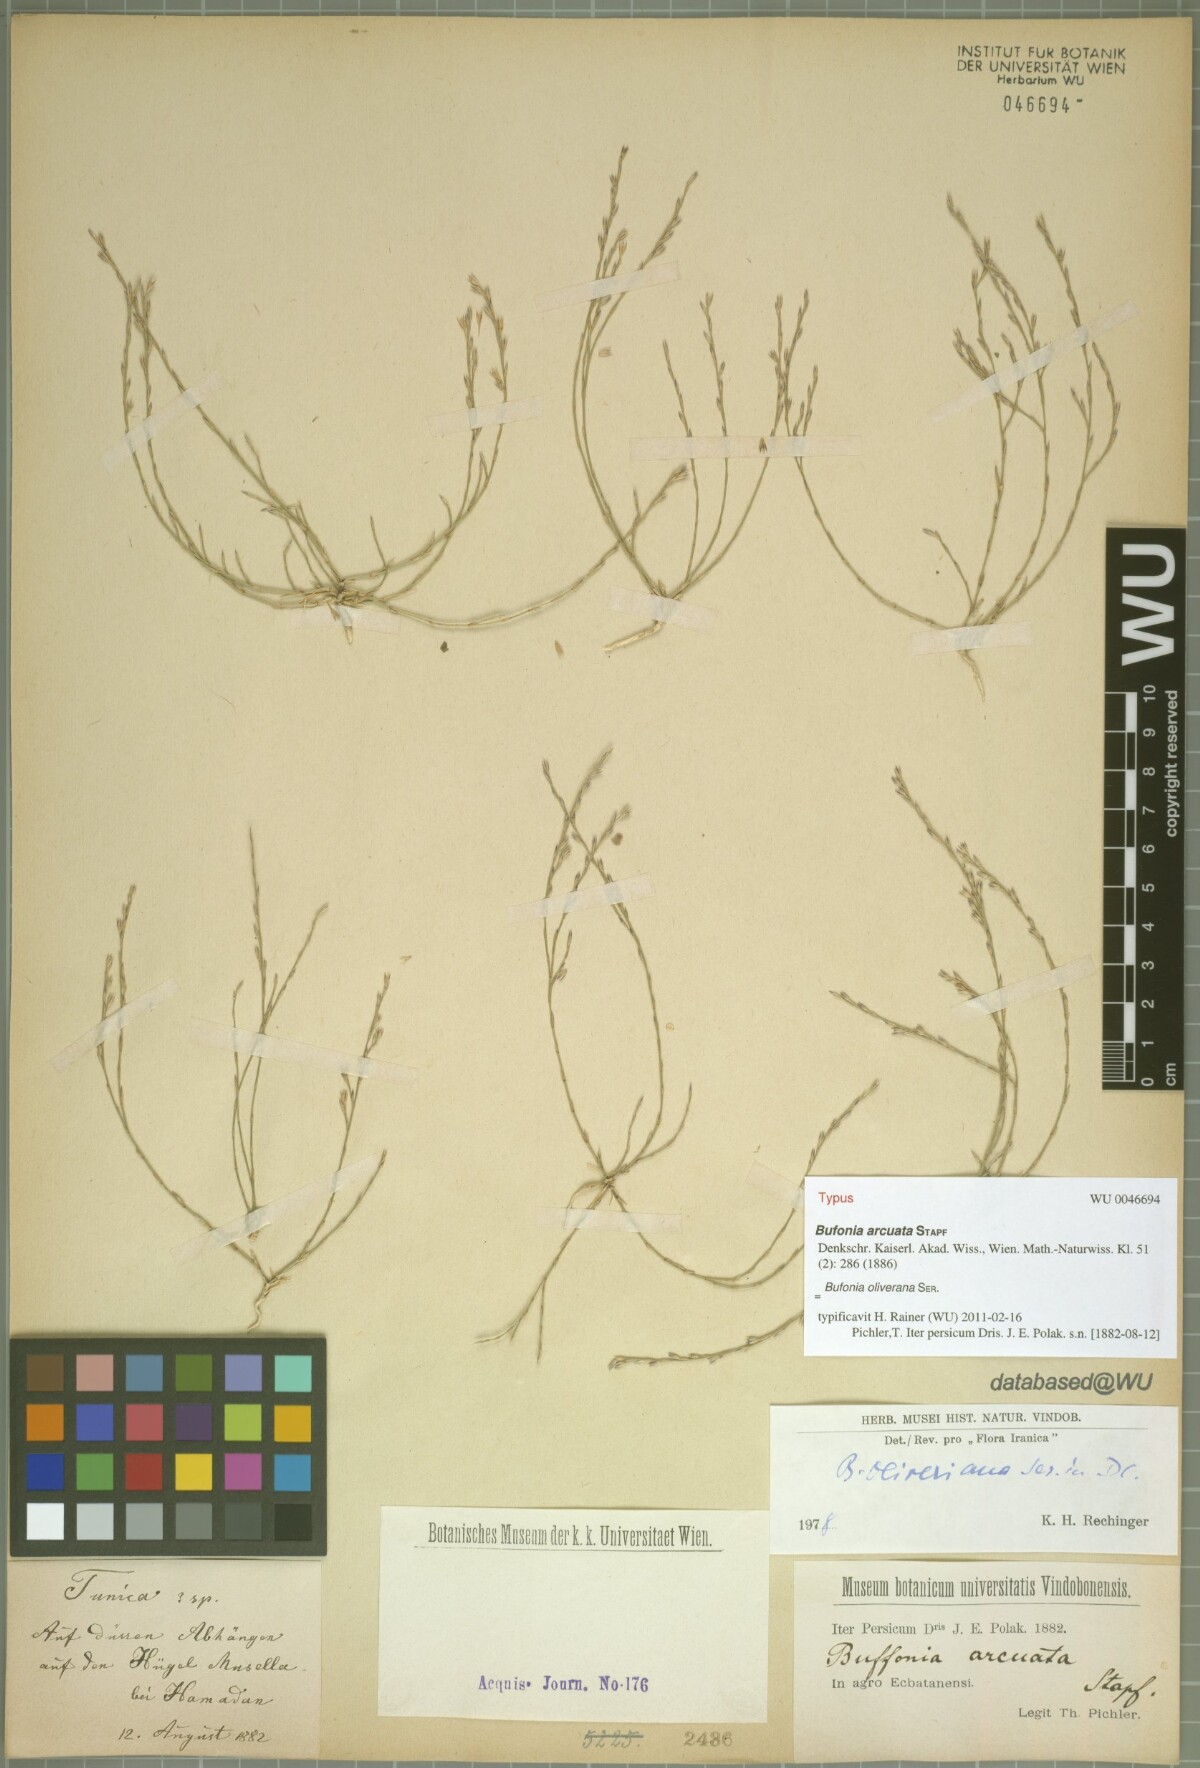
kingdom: Plantae
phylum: Tracheophyta
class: Magnoliopsida
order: Caryophyllales
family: Caryophyllaceae
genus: Bufonia
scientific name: Bufonia oliveriana
